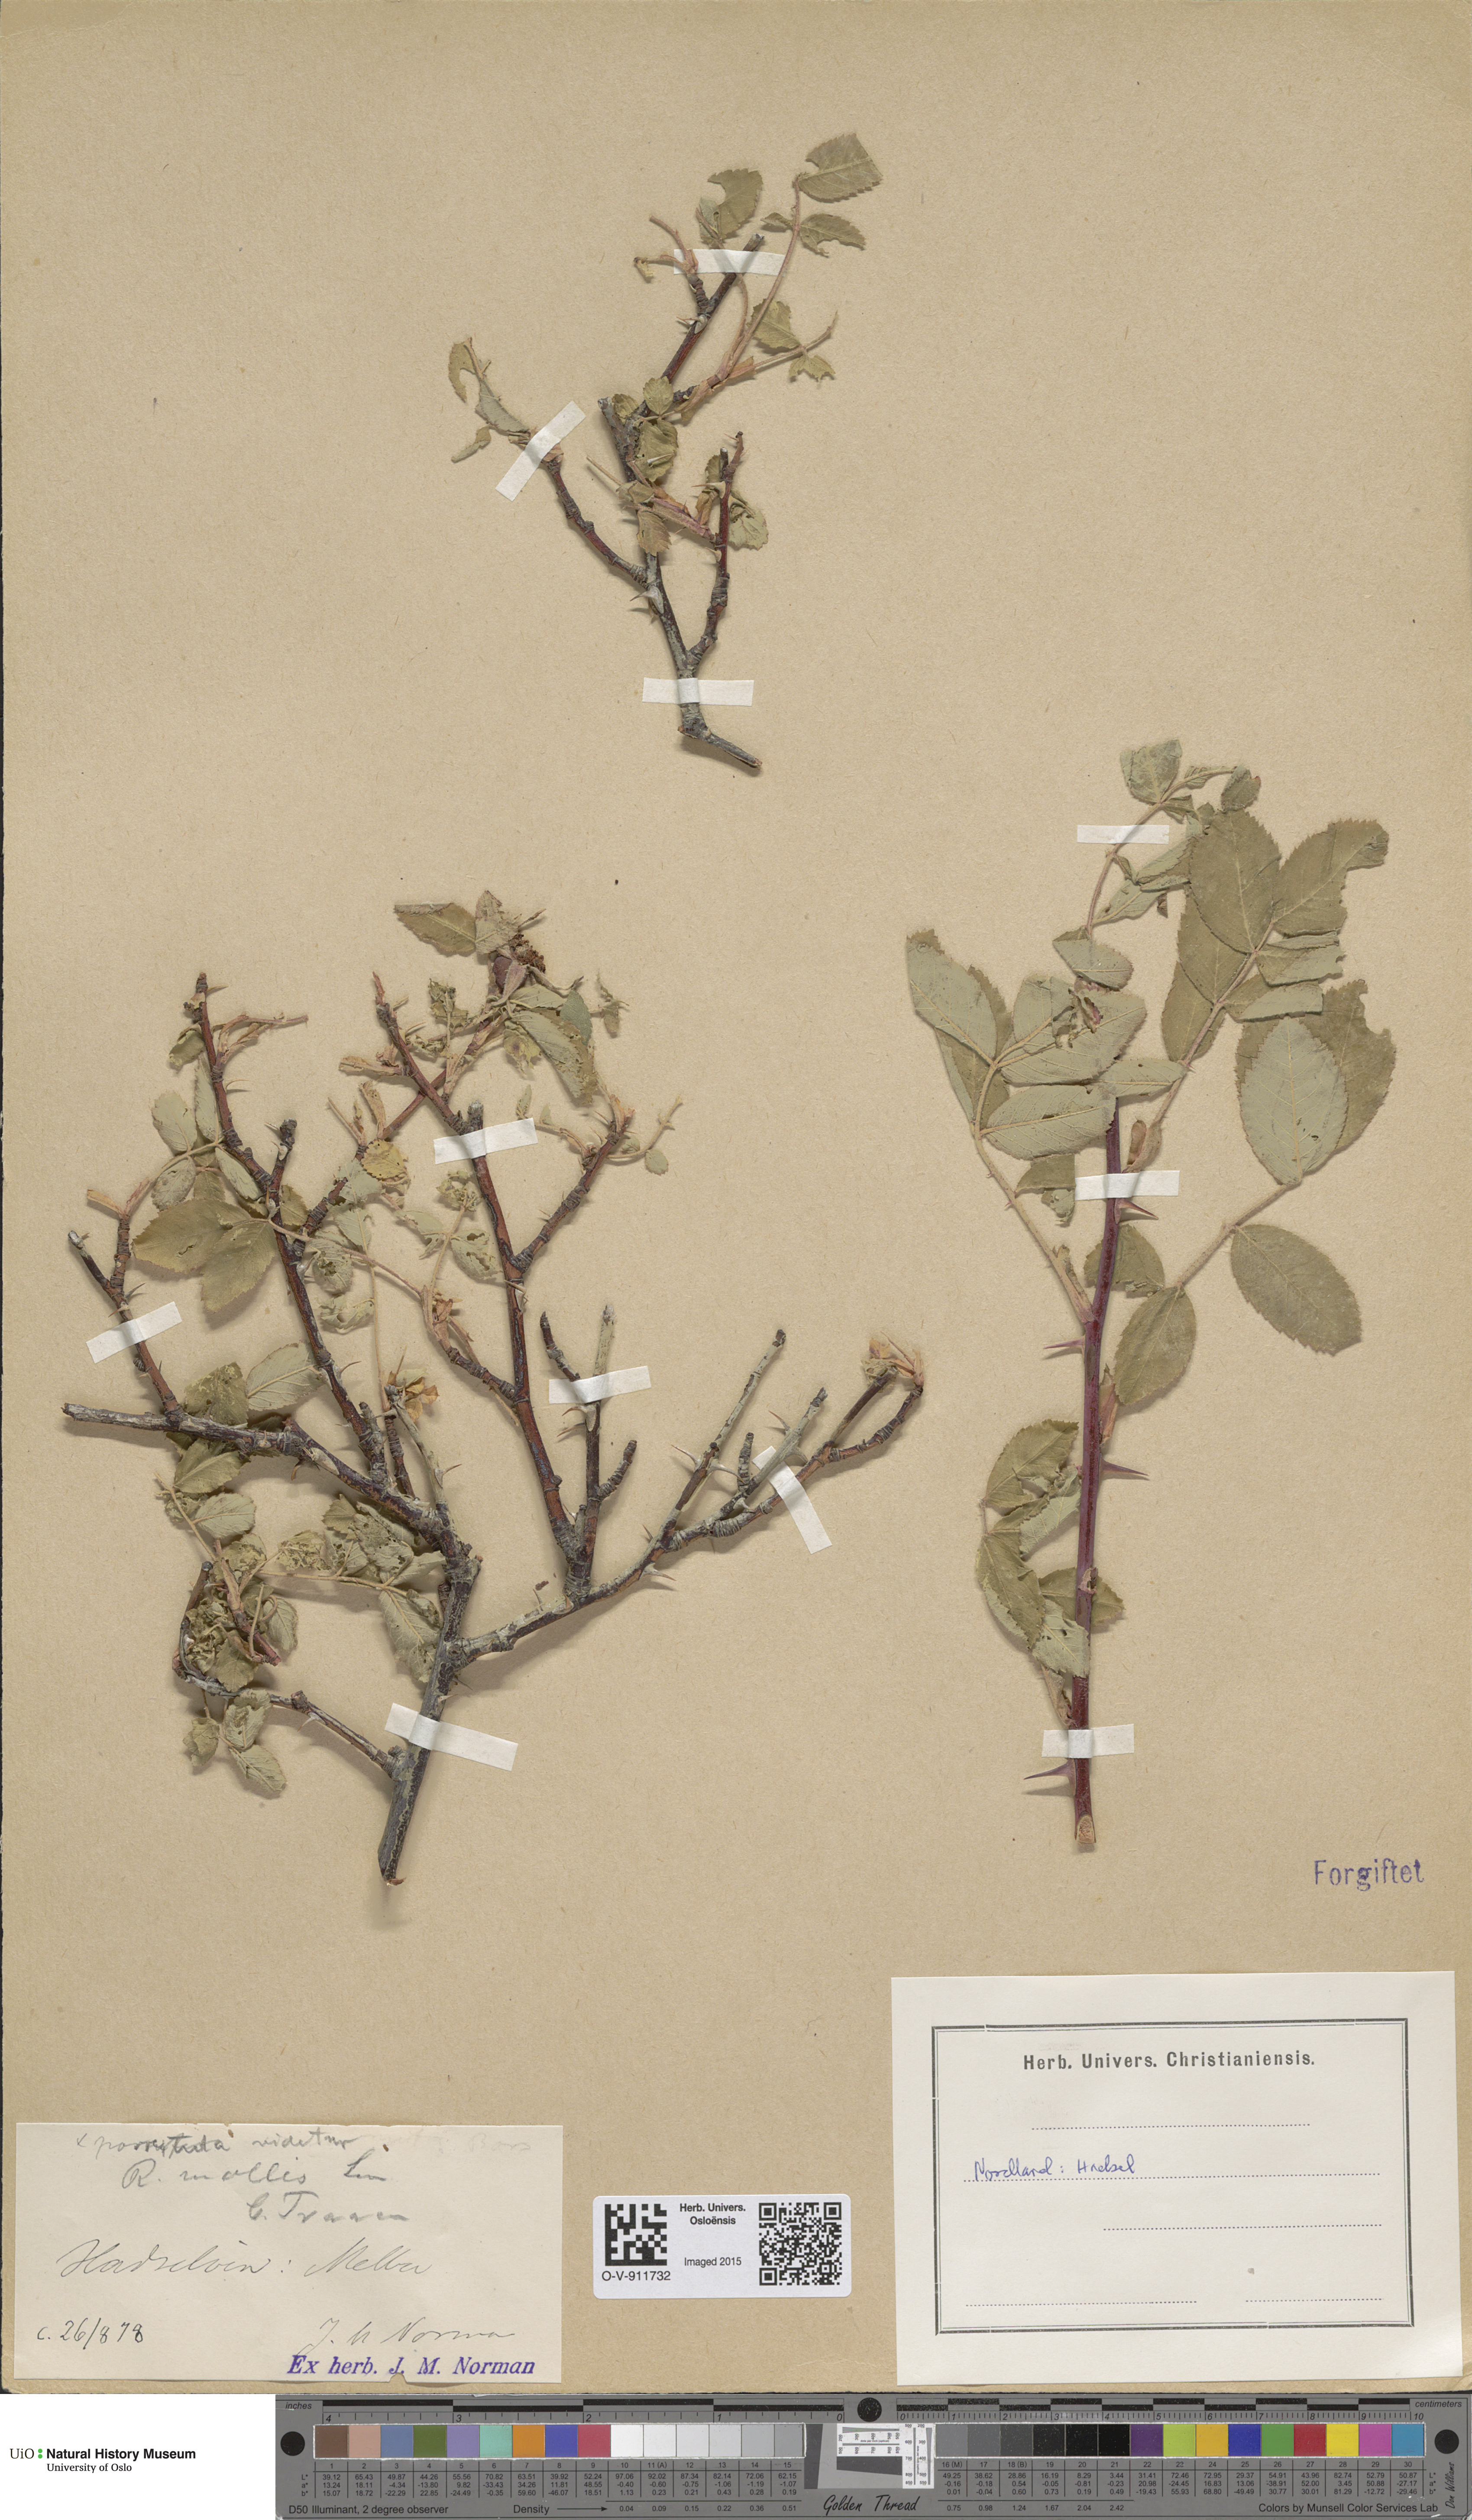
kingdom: Plantae
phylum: Tracheophyta
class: Magnoliopsida
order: Rosales
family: Rosaceae
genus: Rosa
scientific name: Rosa mollis
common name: Rose
